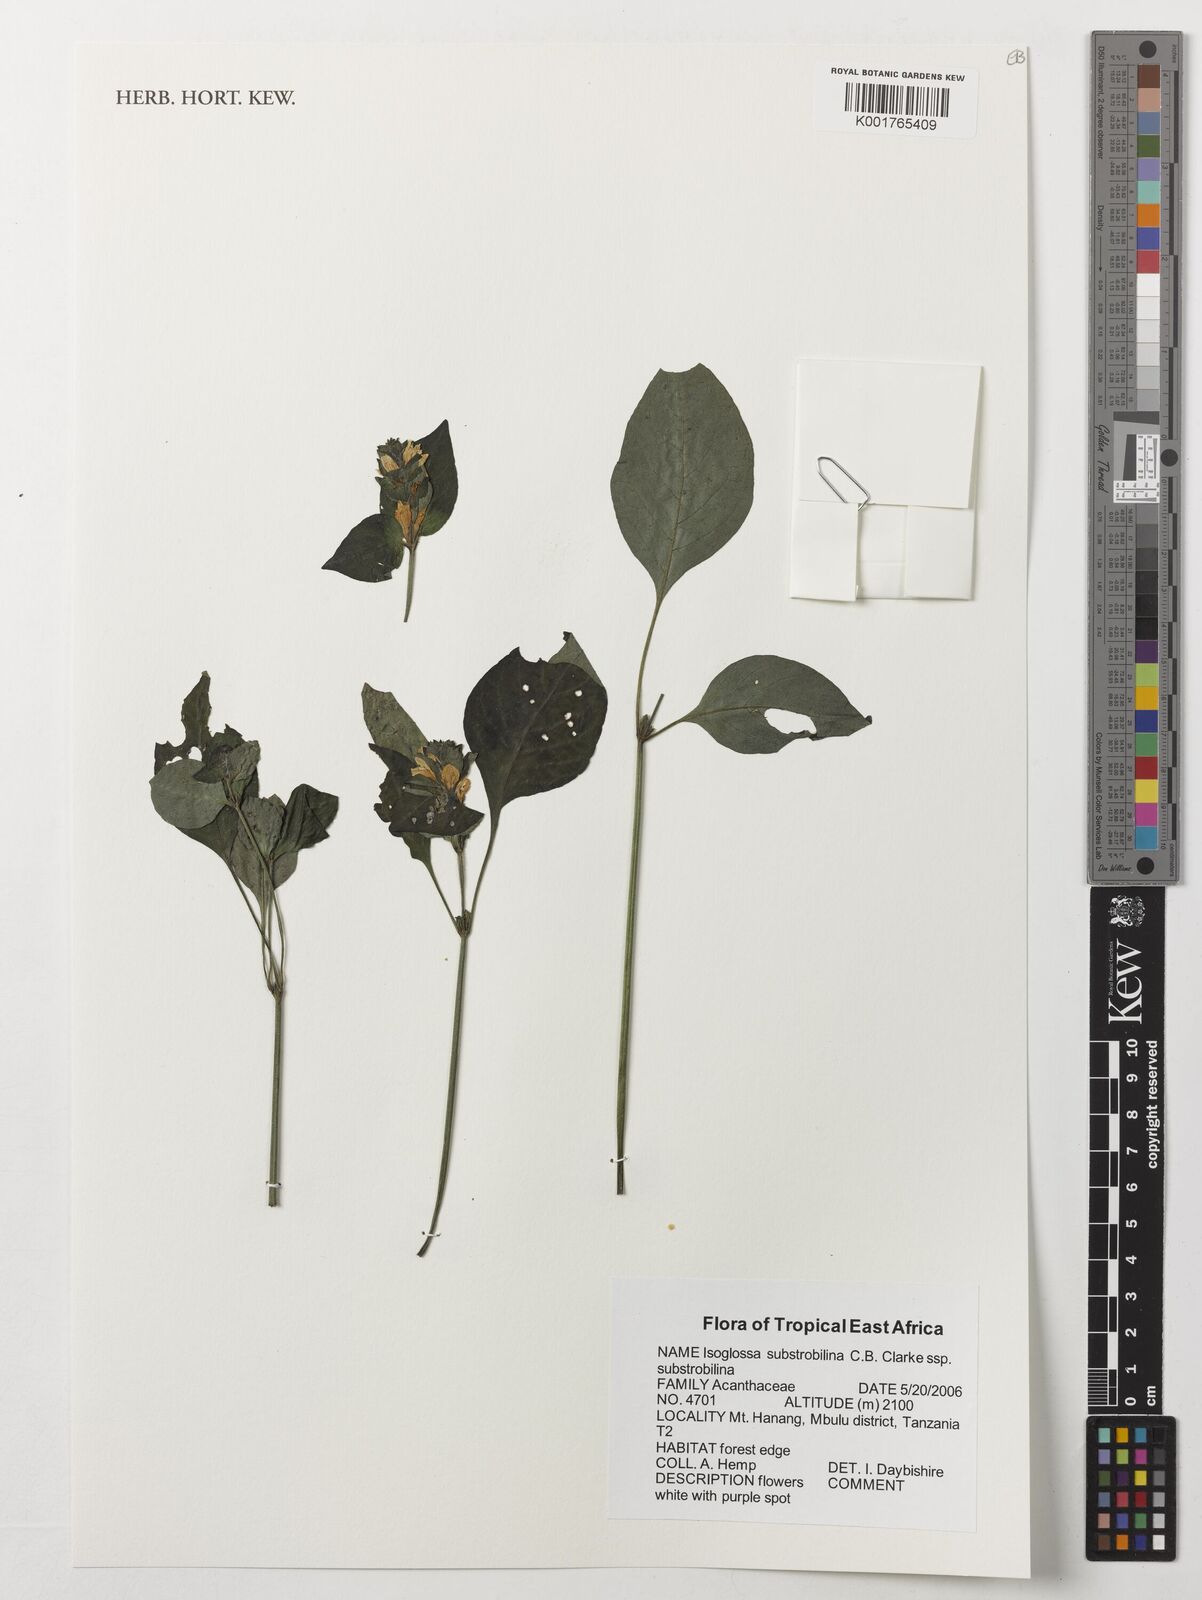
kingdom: Plantae
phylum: Tracheophyta
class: Magnoliopsida
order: Lamiales
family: Acanthaceae
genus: Isoglossa
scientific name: Isoglossa substrobilina
